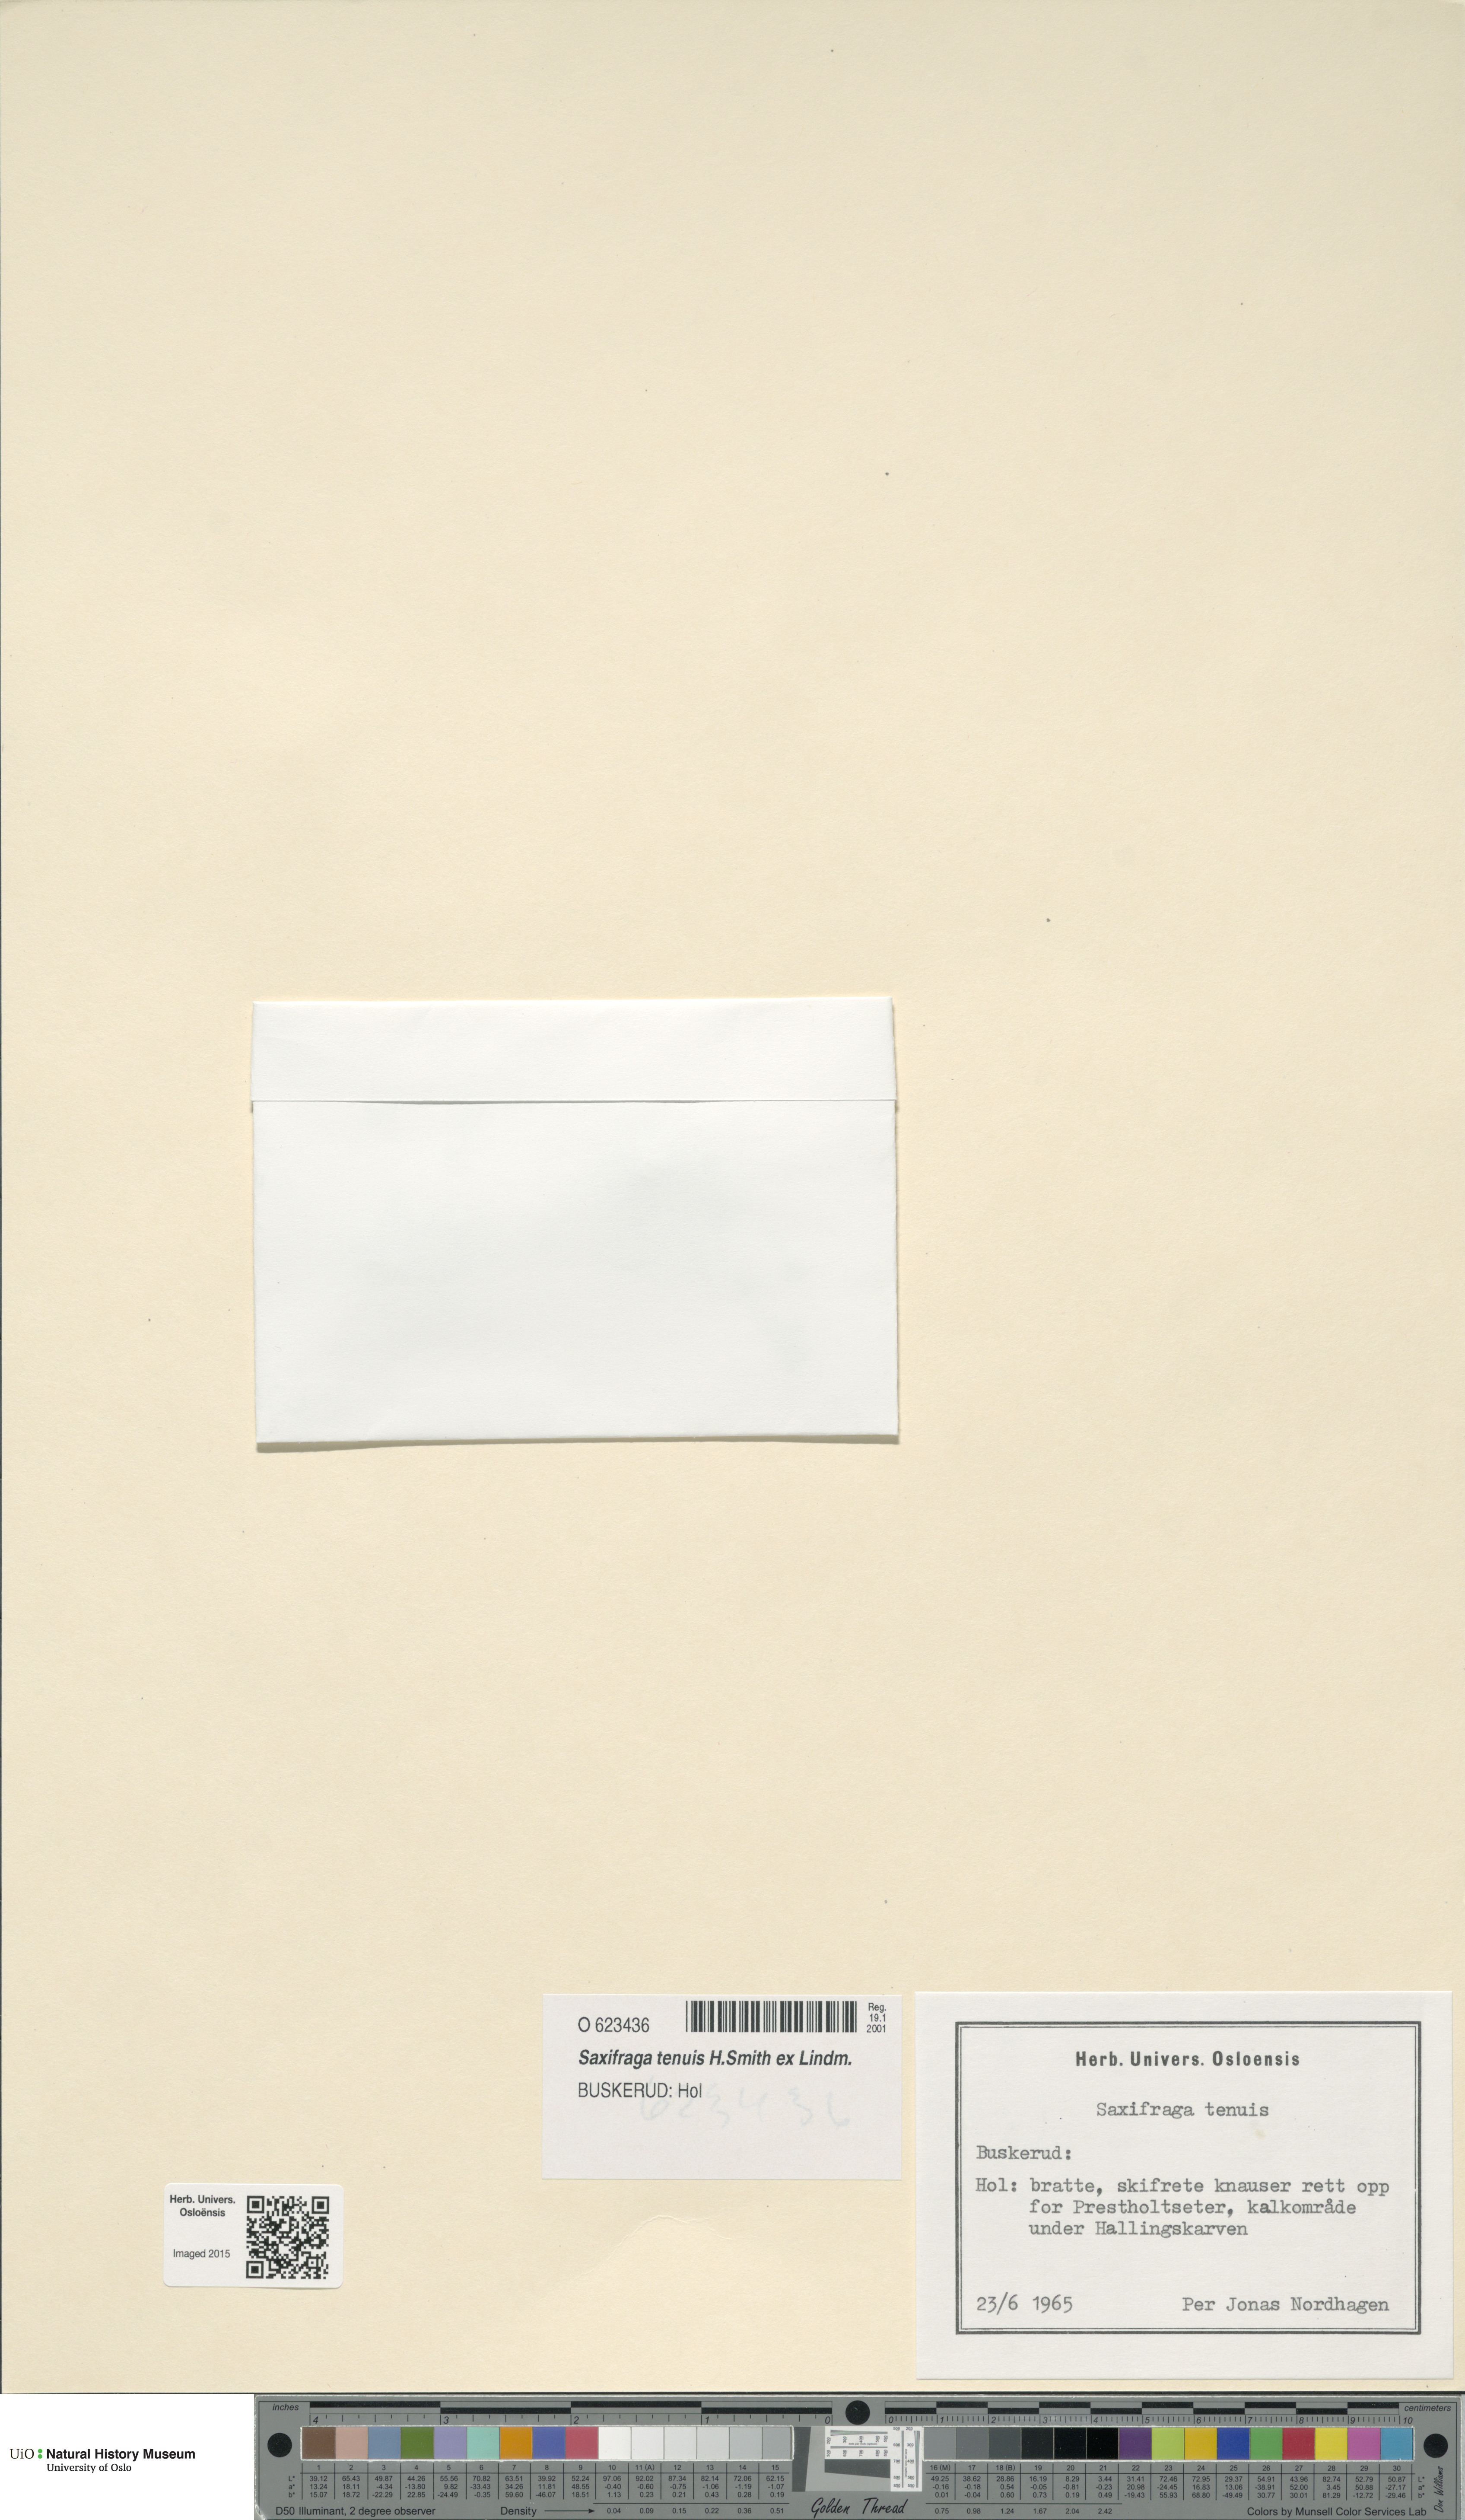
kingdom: Plantae
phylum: Tracheophyta
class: Magnoliopsida
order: Saxifragales
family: Saxifragaceae
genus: Micranthes
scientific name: Micranthes tenuis
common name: Ottertail pass saxifrage
